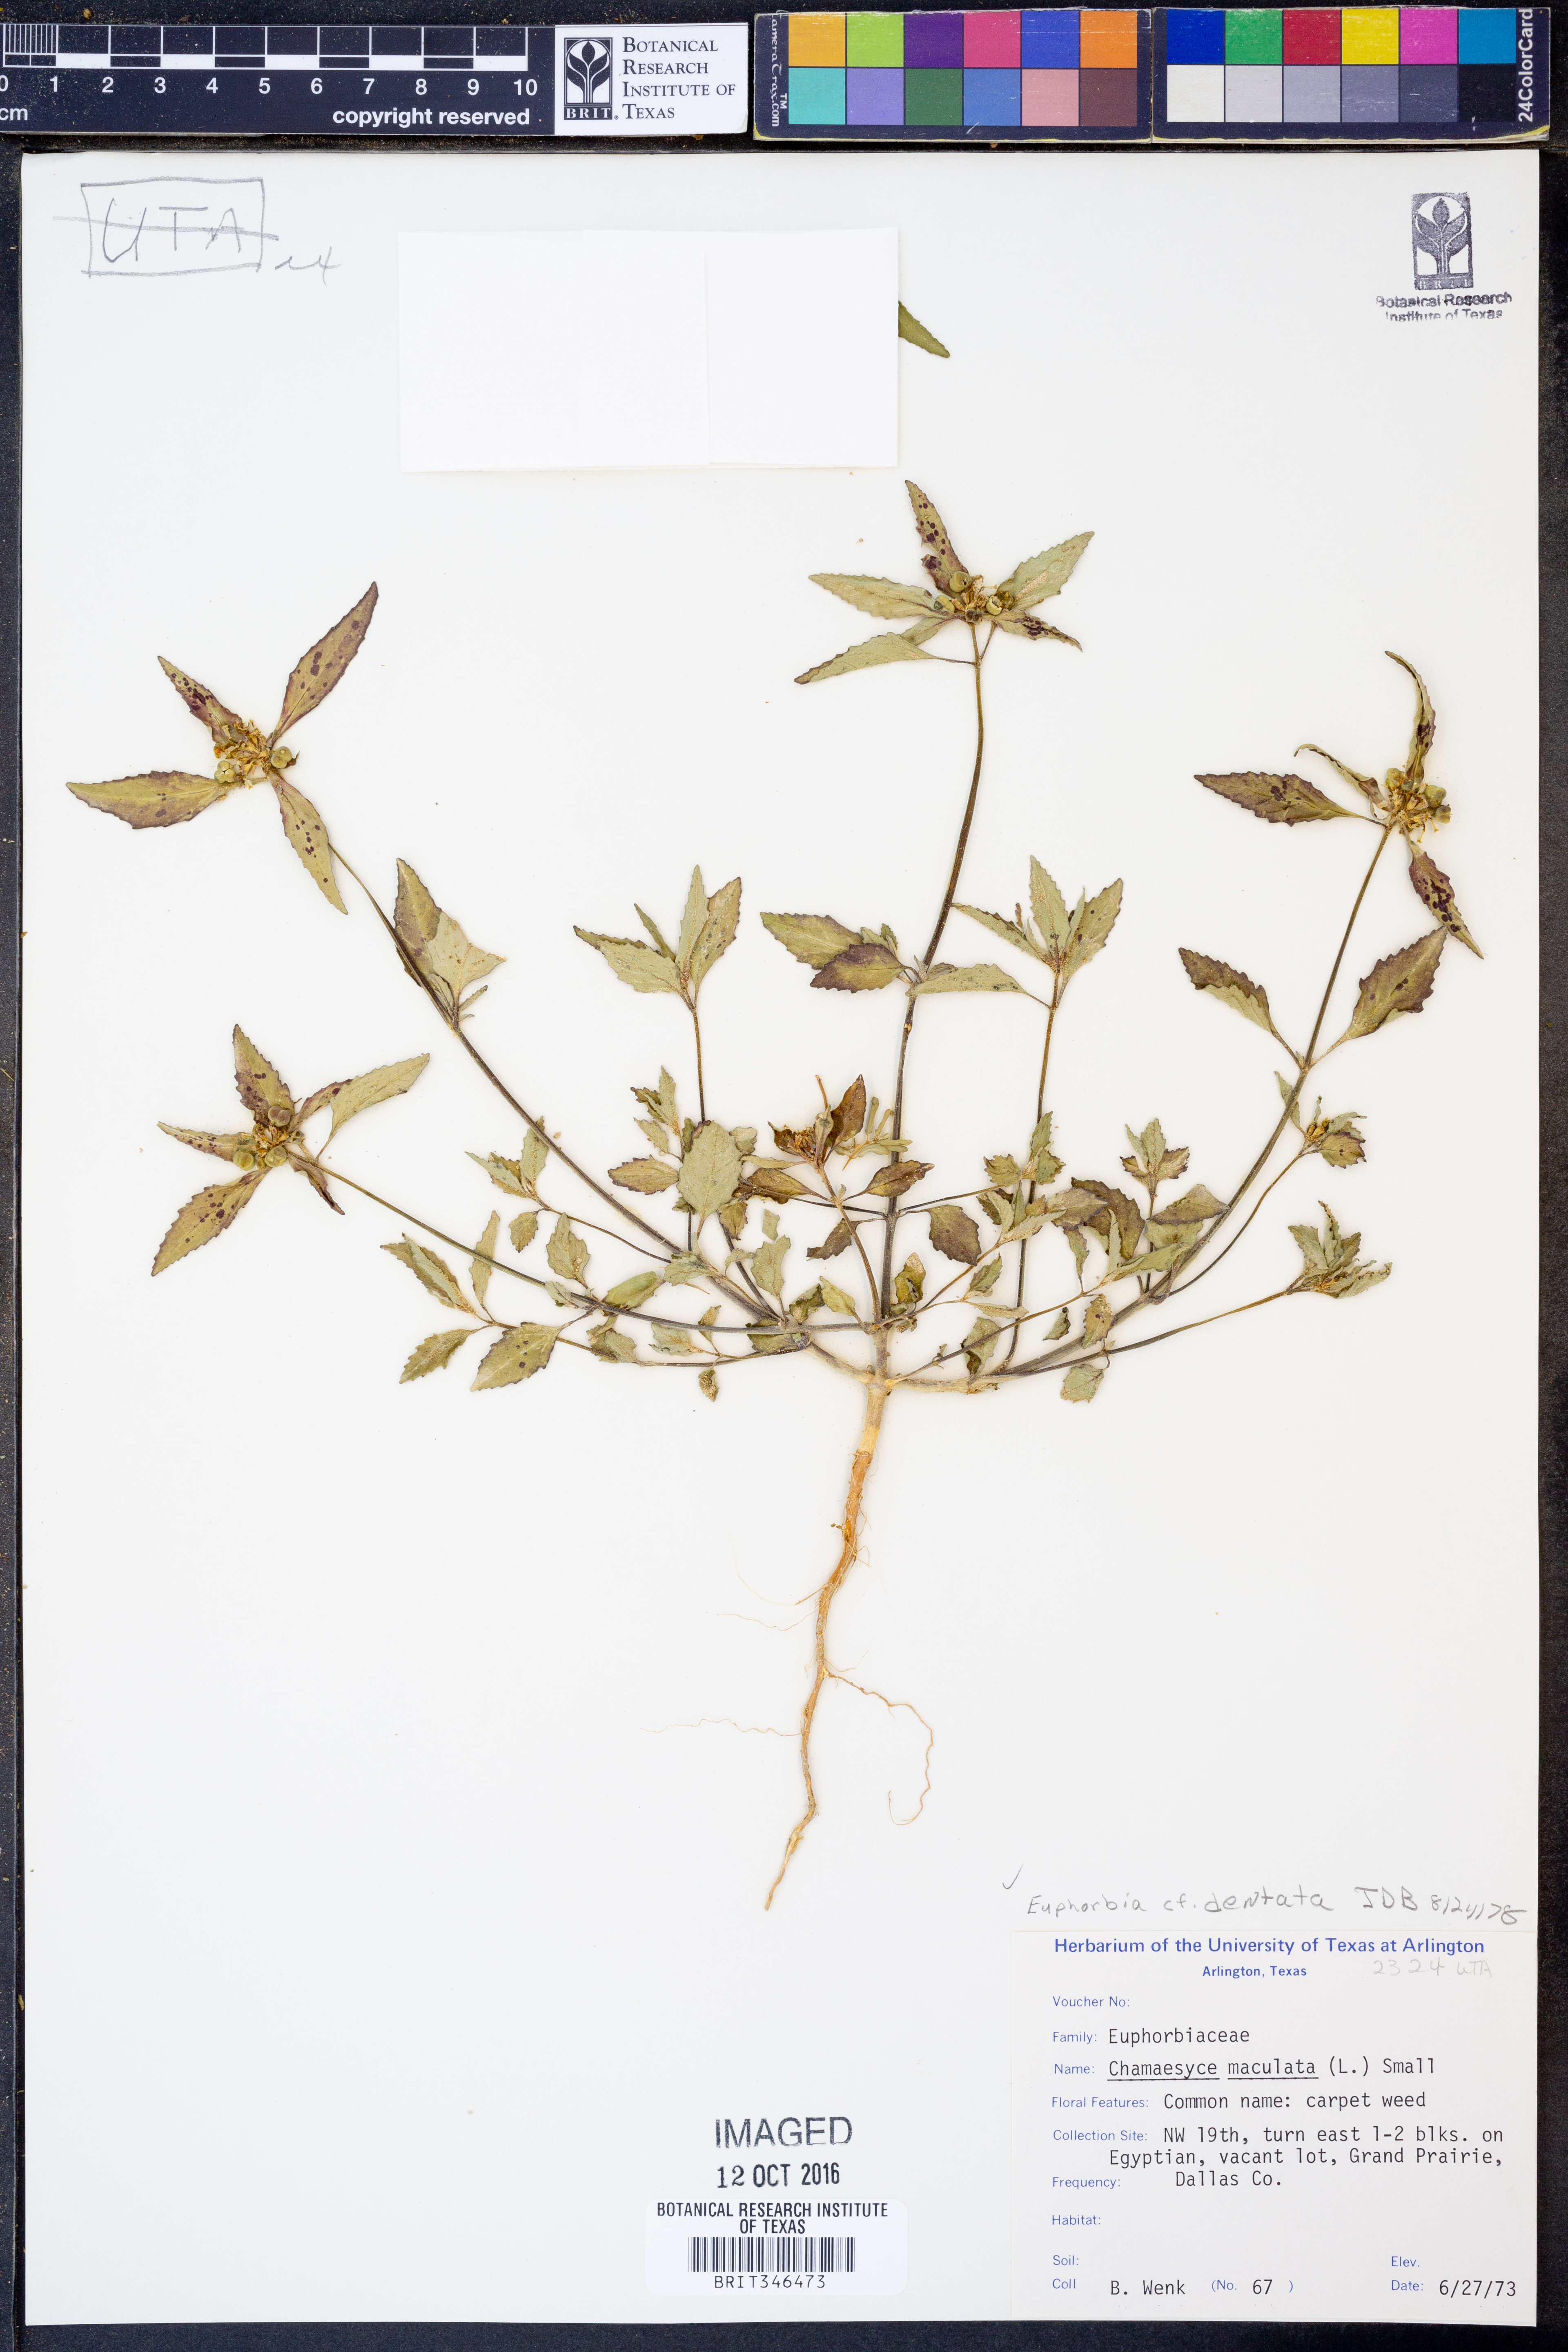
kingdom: Plantae
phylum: Tracheophyta
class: Magnoliopsida
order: Malpighiales
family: Euphorbiaceae
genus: Euphorbia
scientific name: Euphorbia dentata
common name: Dentate spurge
